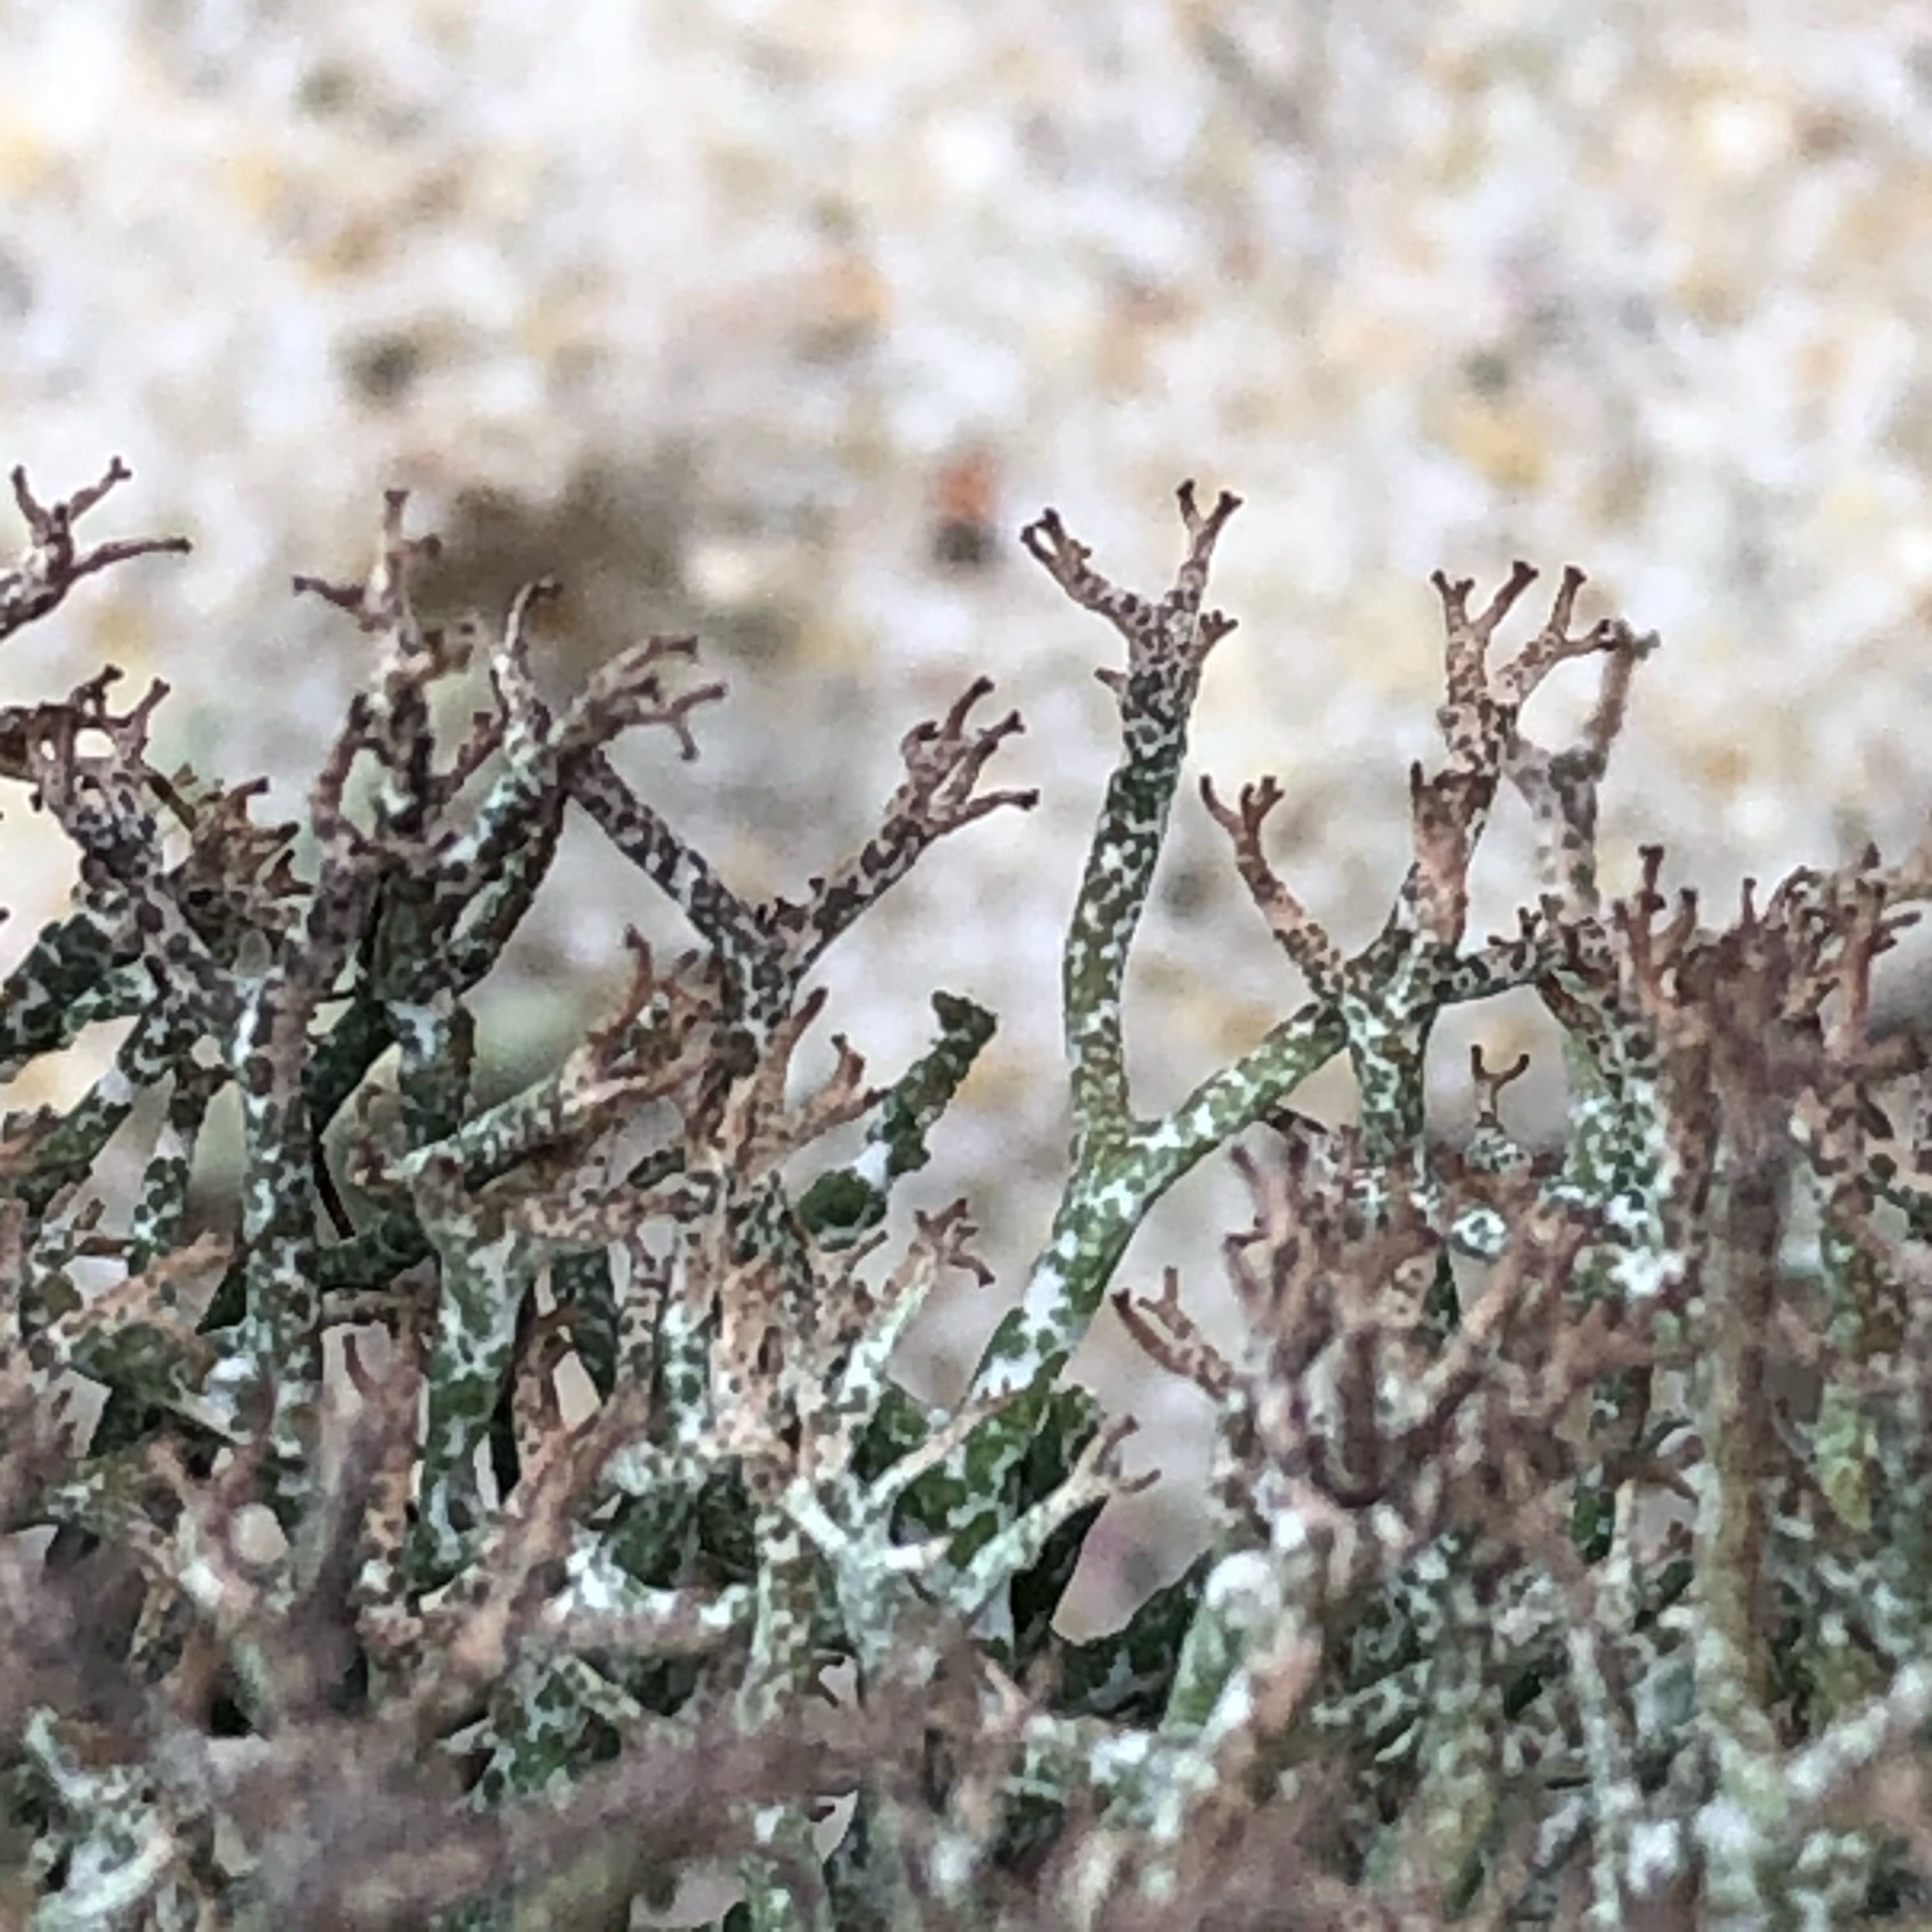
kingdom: Fungi
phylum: Ascomycota
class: Lecanoromycetes
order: Lecanorales
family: Cladoniaceae
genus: Cladonia
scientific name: Cladonia rangiformis
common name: spættet bægerlav
